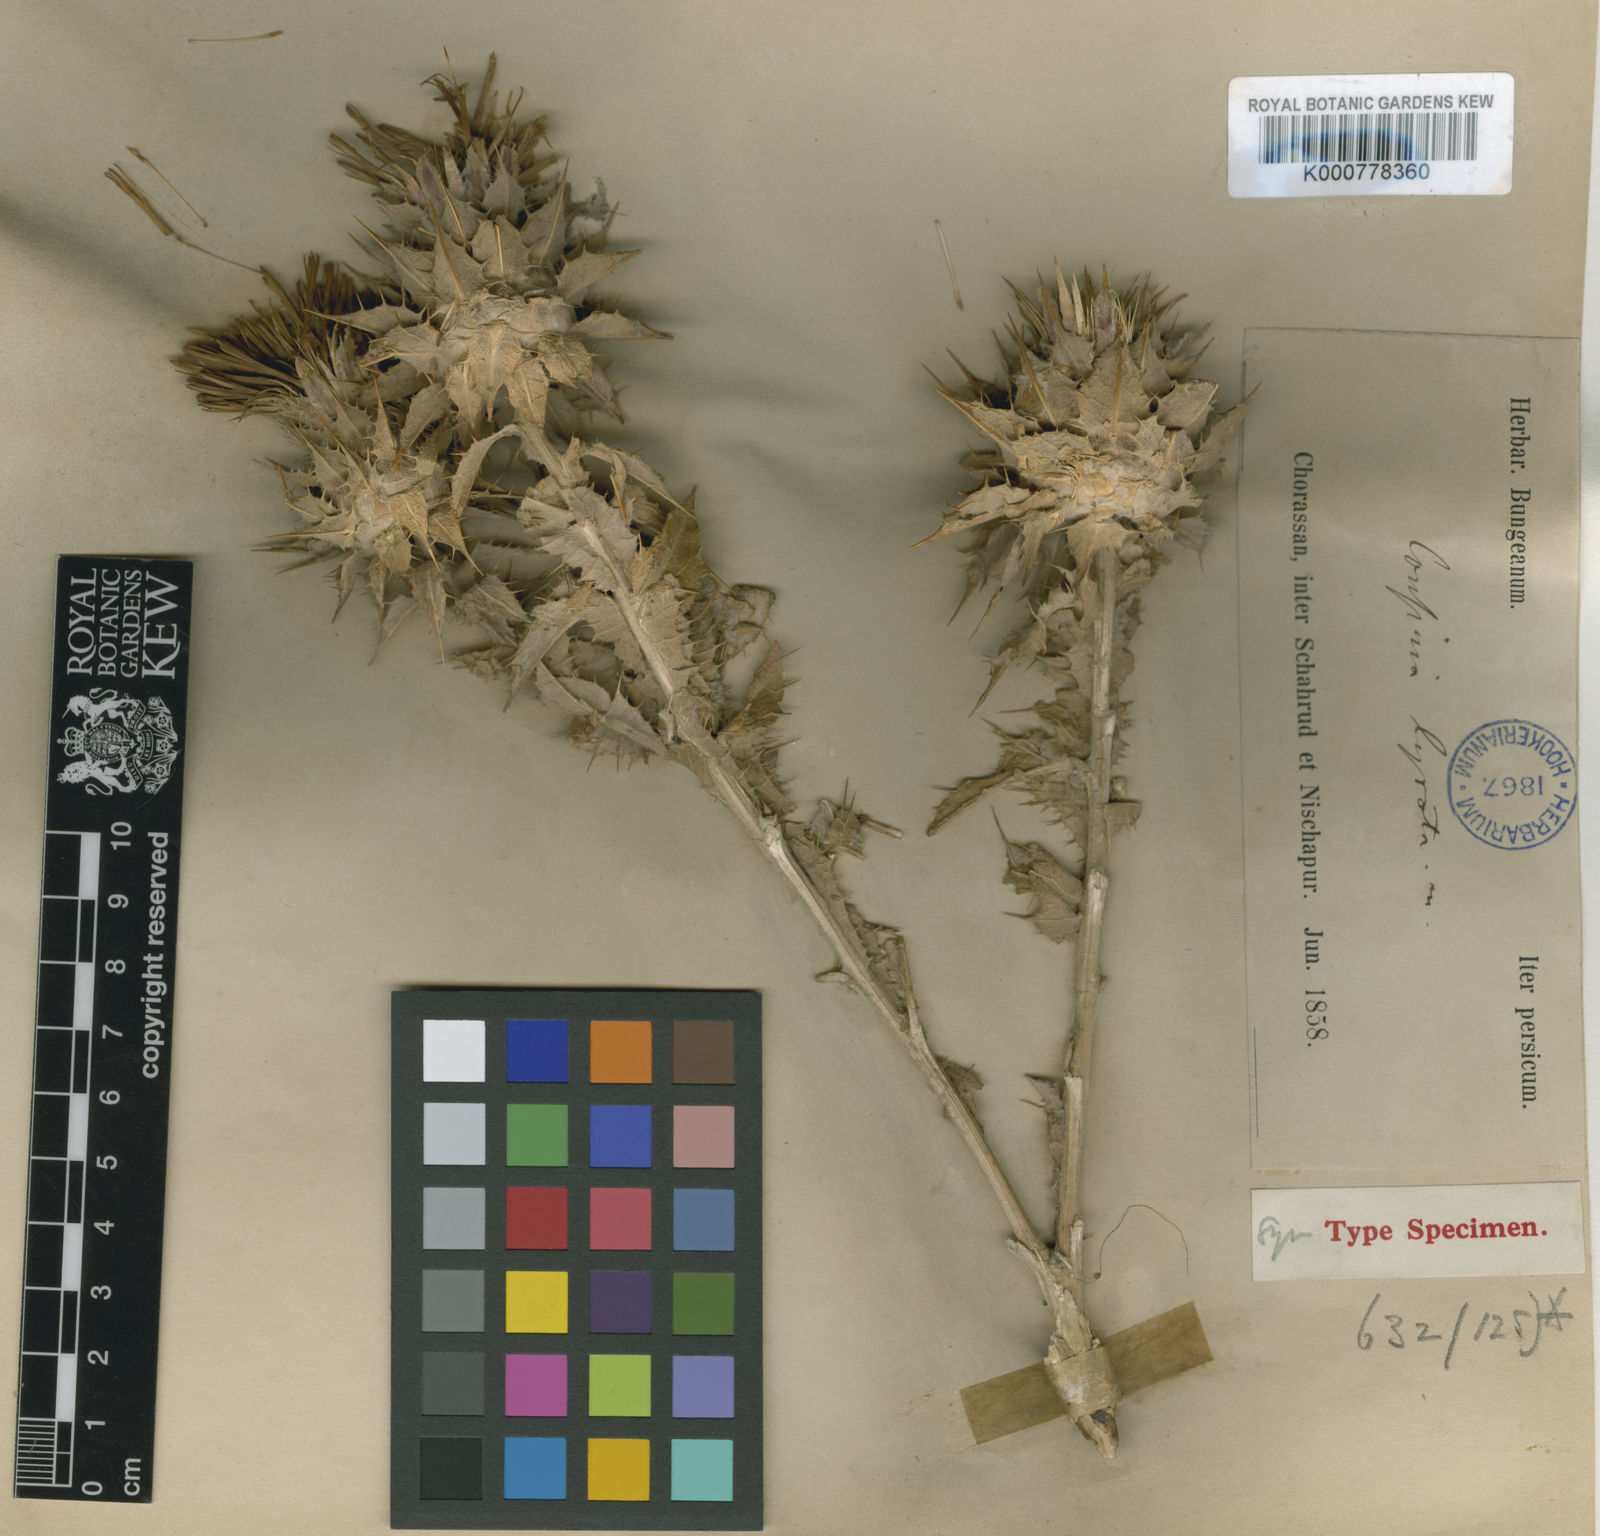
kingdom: Plantae
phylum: Tracheophyta
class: Magnoliopsida
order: Asterales
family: Asteraceae
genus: Cousinia
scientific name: Cousinia lyrata
